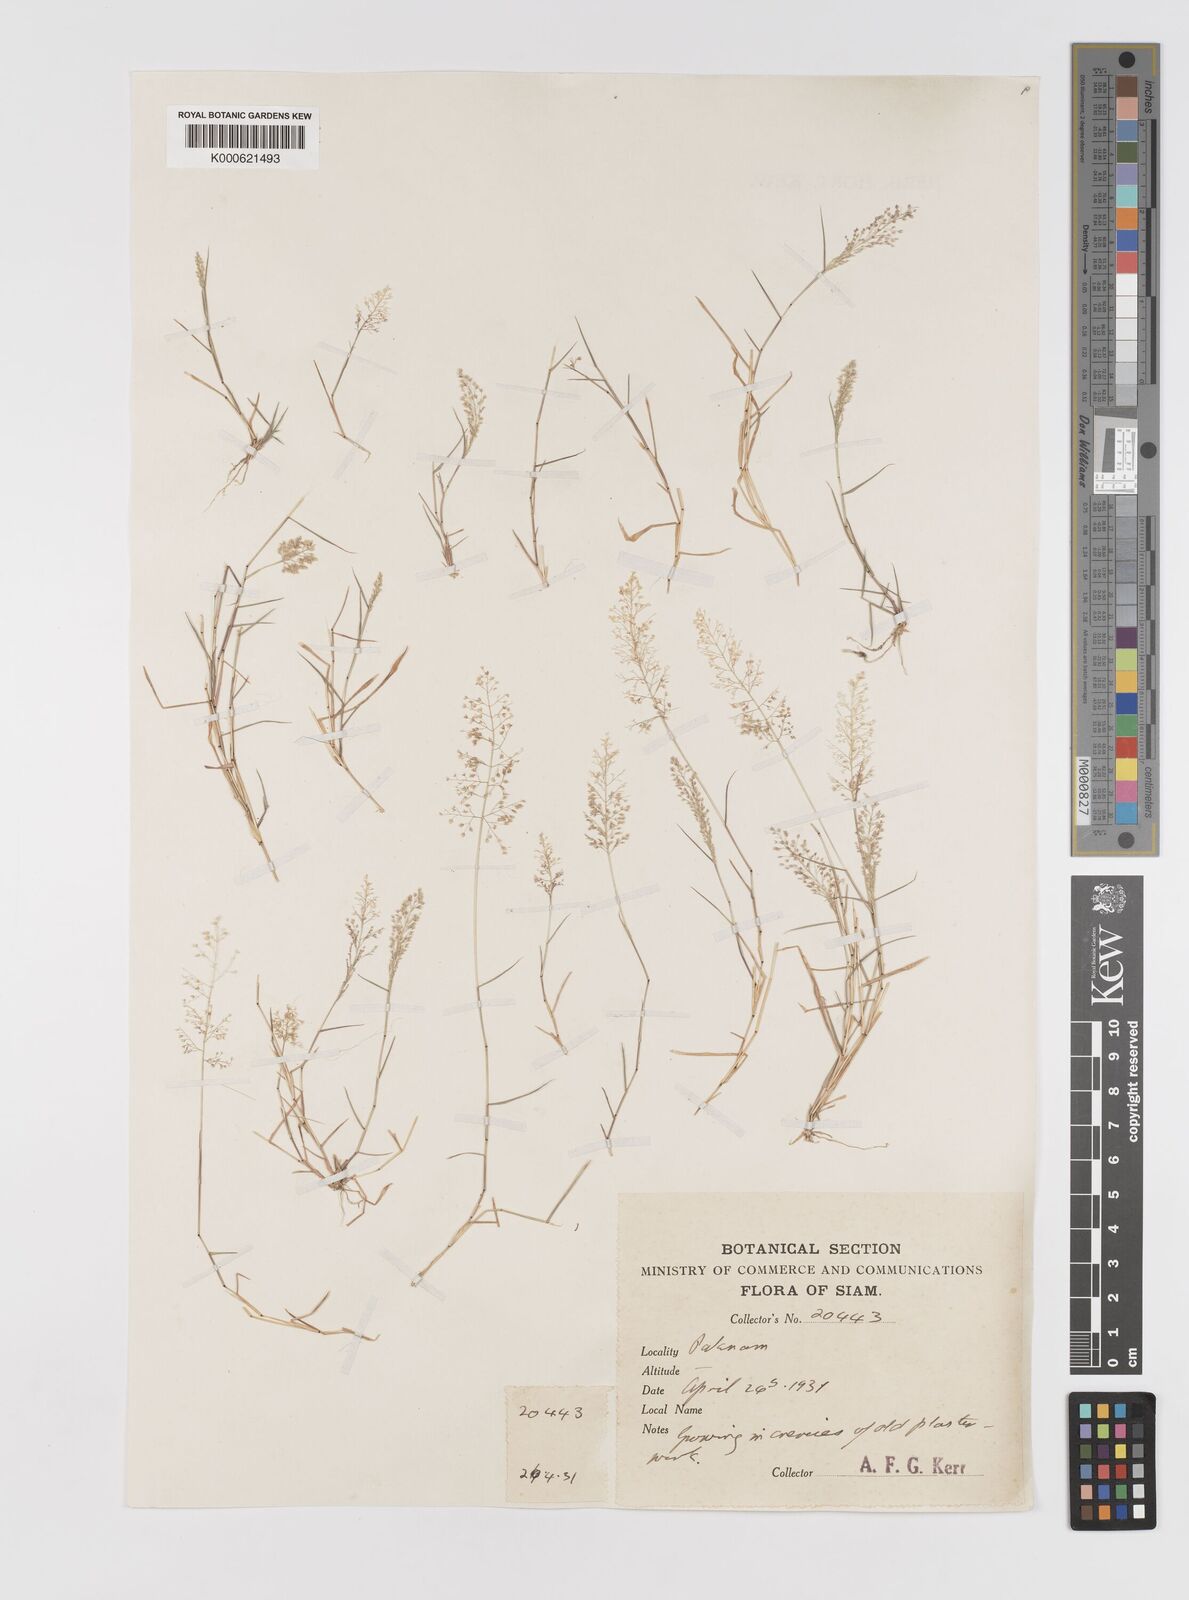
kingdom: Plantae
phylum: Tracheophyta
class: Liliopsida
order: Poales
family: Poaceae
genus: Eragrostis
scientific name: Eragrostis tenella
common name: Japanese lovegrass
